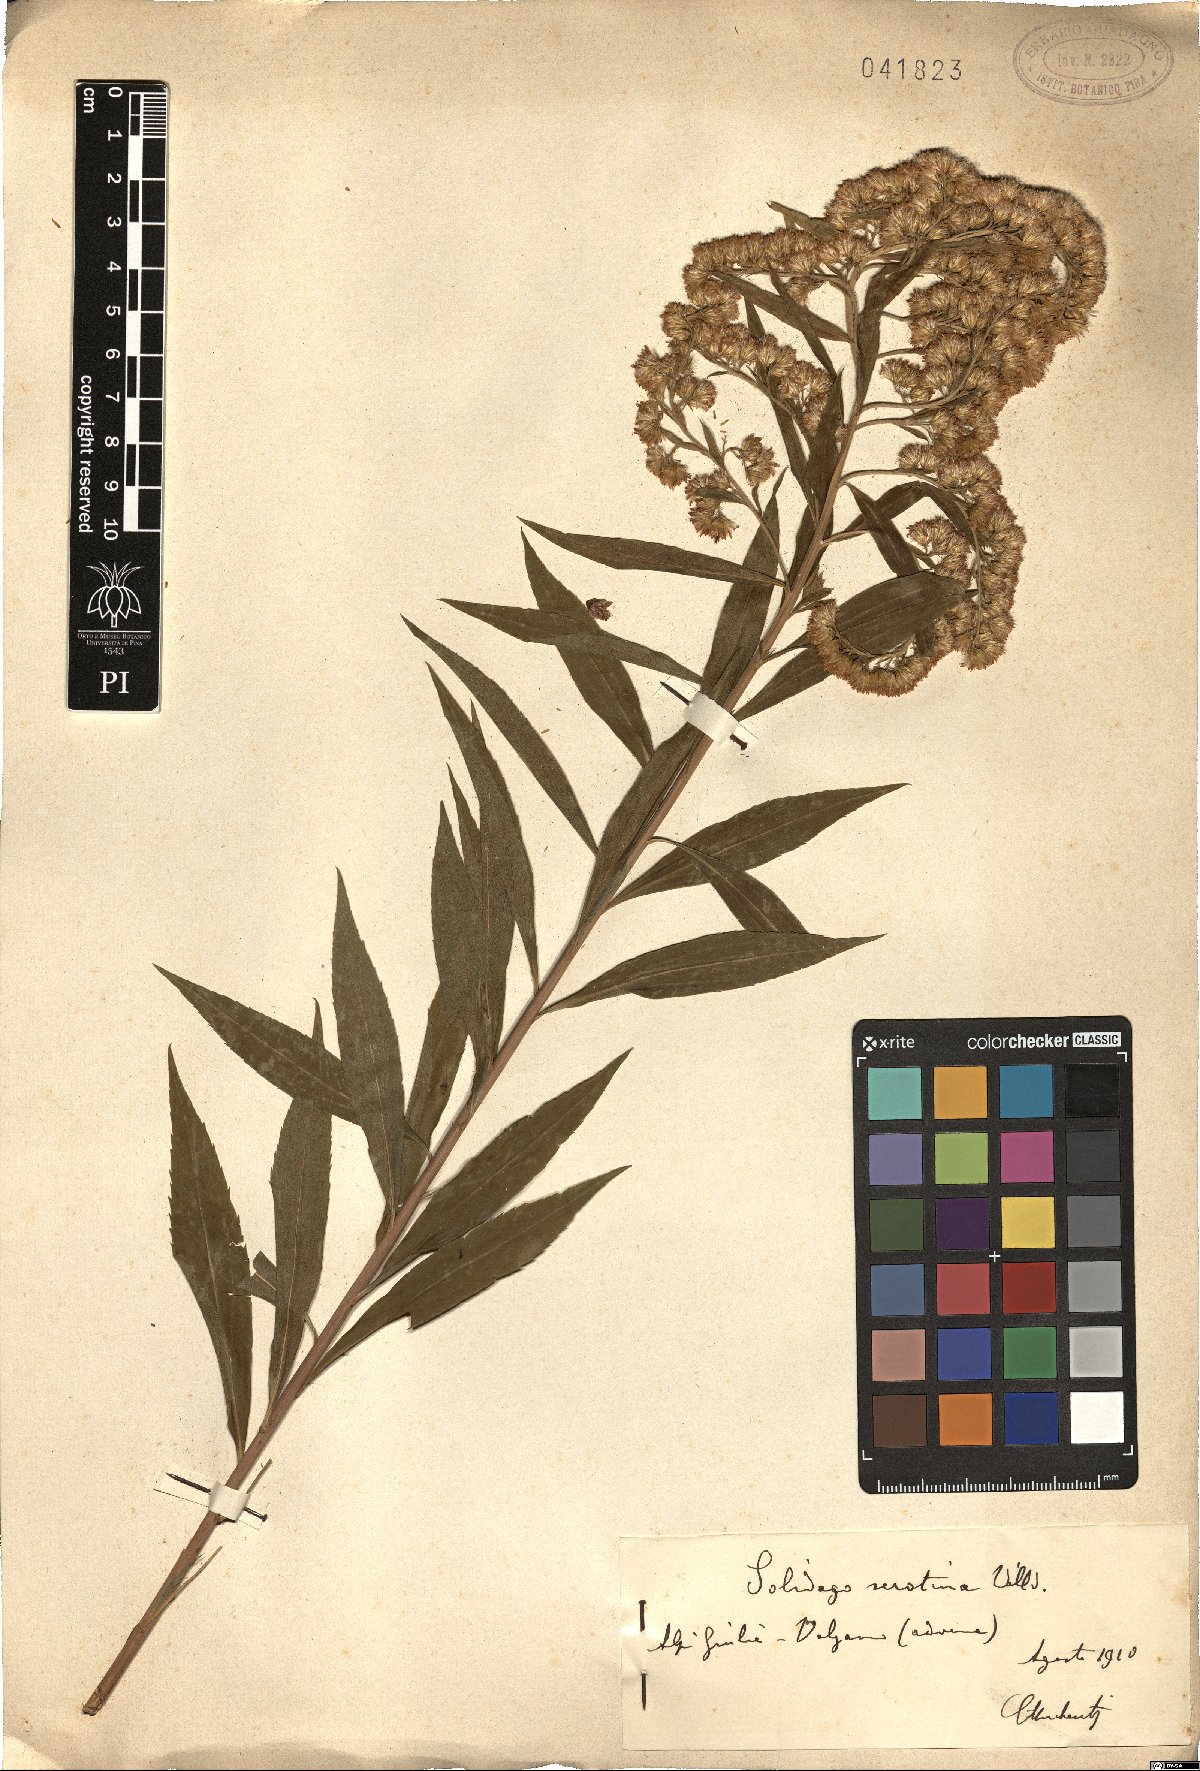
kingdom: Plantae
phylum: Tracheophyta
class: Magnoliopsida
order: Asterales
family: Asteraceae
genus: Solidago
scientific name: Solidago gigantea
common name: Giant goldenrod
